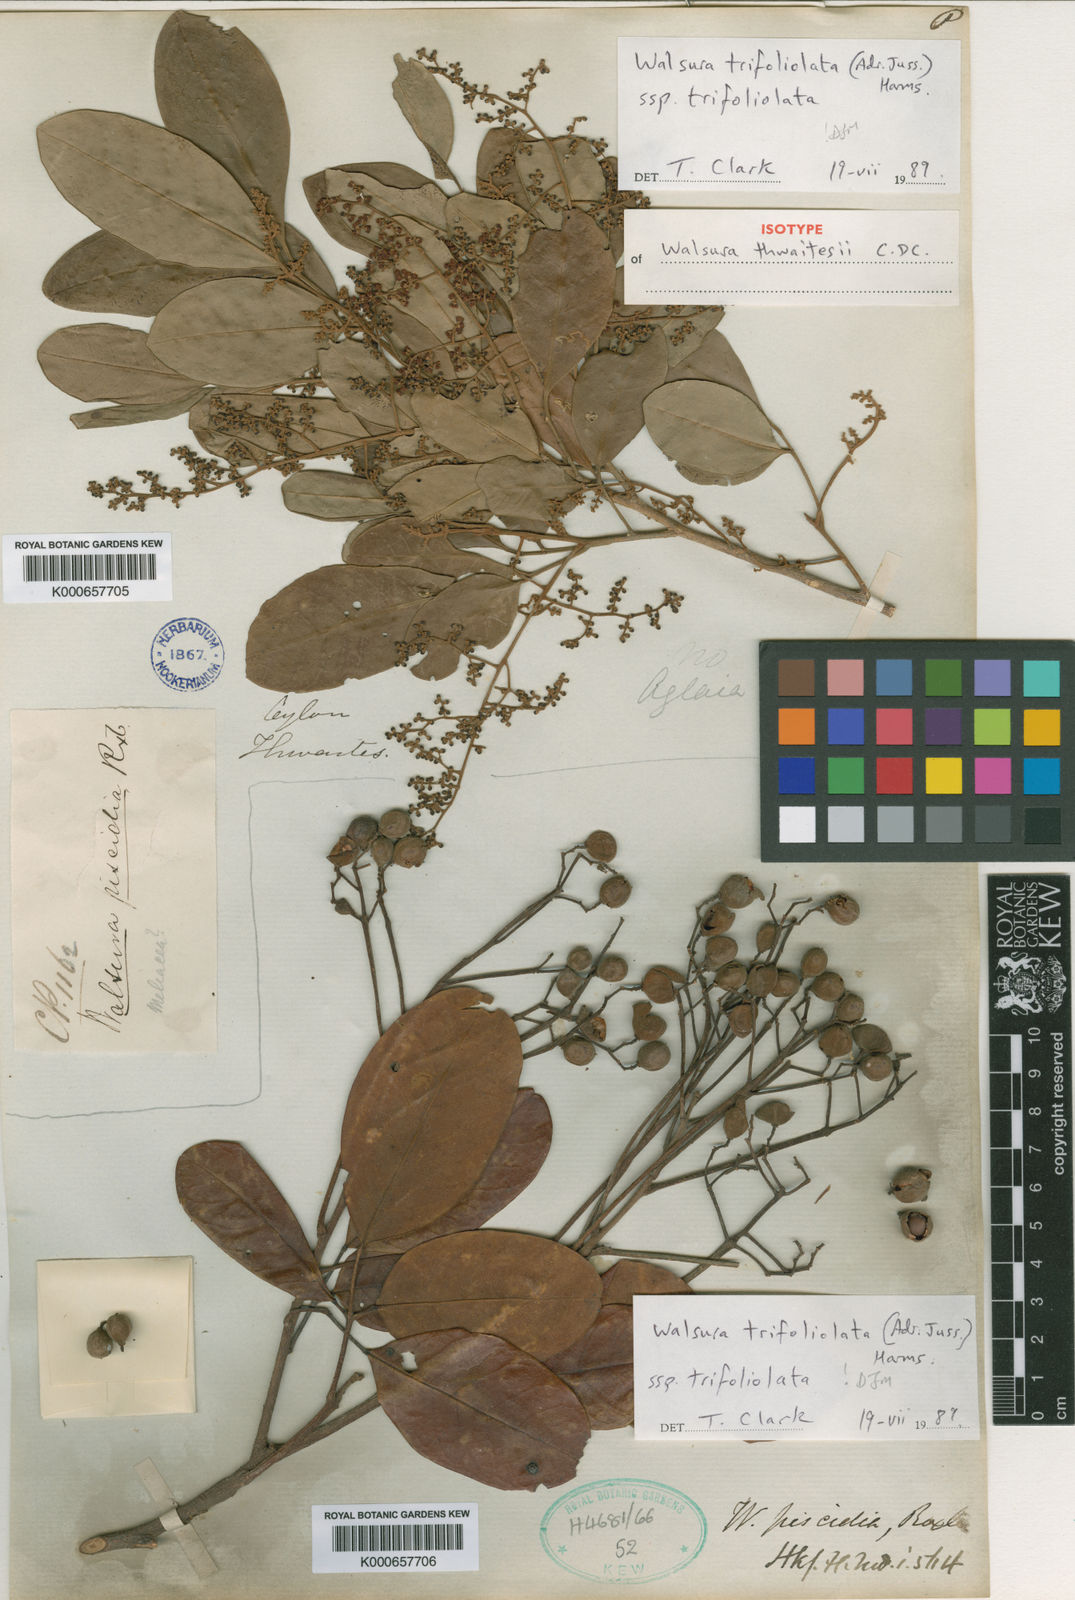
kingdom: Plantae
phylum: Tracheophyta
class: Magnoliopsida
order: Sapindales
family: Meliaceae
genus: Walsura
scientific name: Walsura trifoliolata
